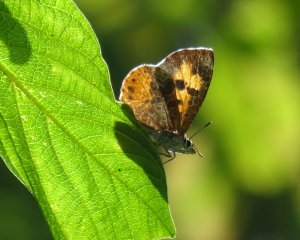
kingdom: Animalia
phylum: Arthropoda
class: Insecta
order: Lepidoptera
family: Lycaenidae
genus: Feniseca
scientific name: Feniseca tarquinius
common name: Harvester
